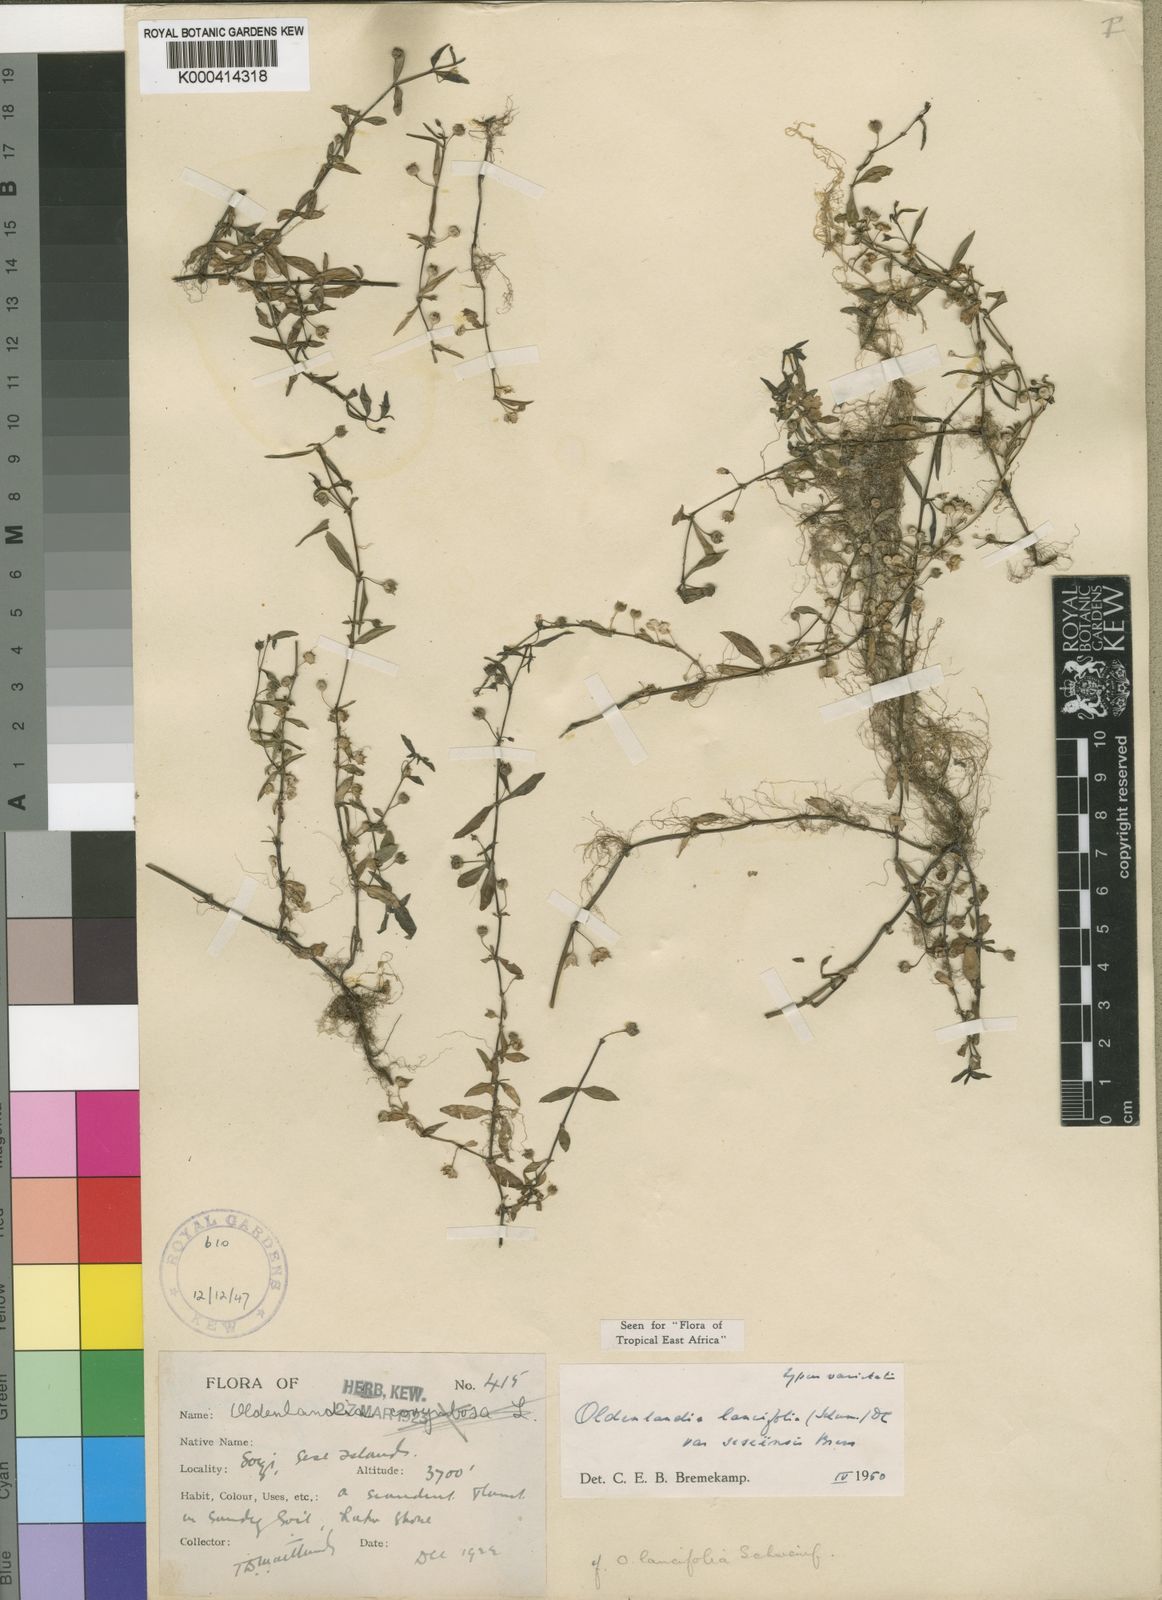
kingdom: Plantae
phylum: Tracheophyta
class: Magnoliopsida
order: Gentianales
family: Rubiaceae
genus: Oldenlandia
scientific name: Oldenlandia lancifolia
